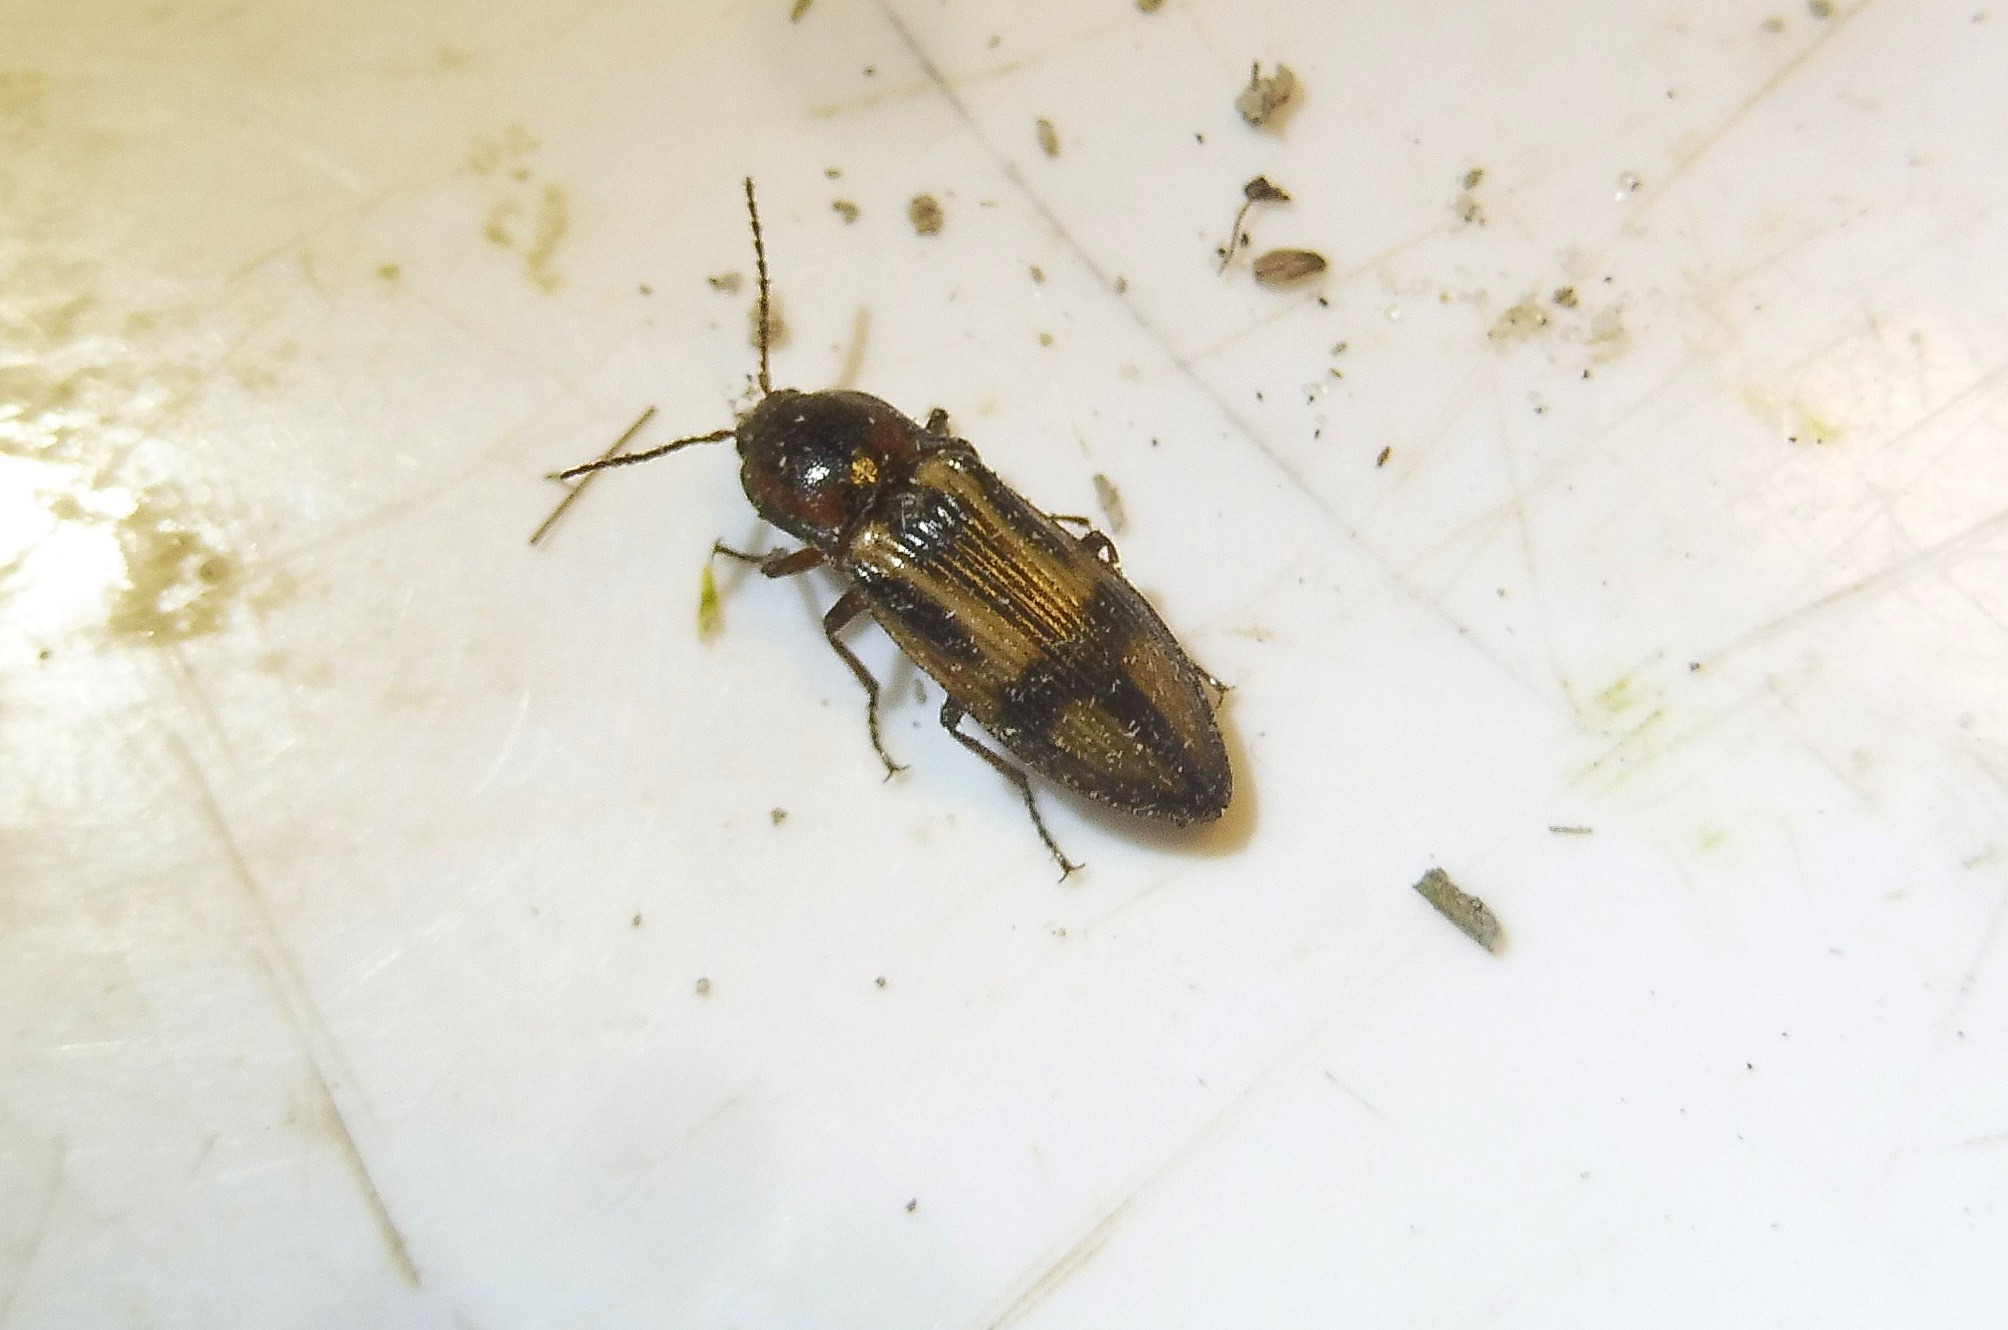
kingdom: Animalia
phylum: Arthropoda
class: Insecta
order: Coleoptera
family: Elateridae
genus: Selatosomus
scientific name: Selatosomus cruciatus
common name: Korssmælder
